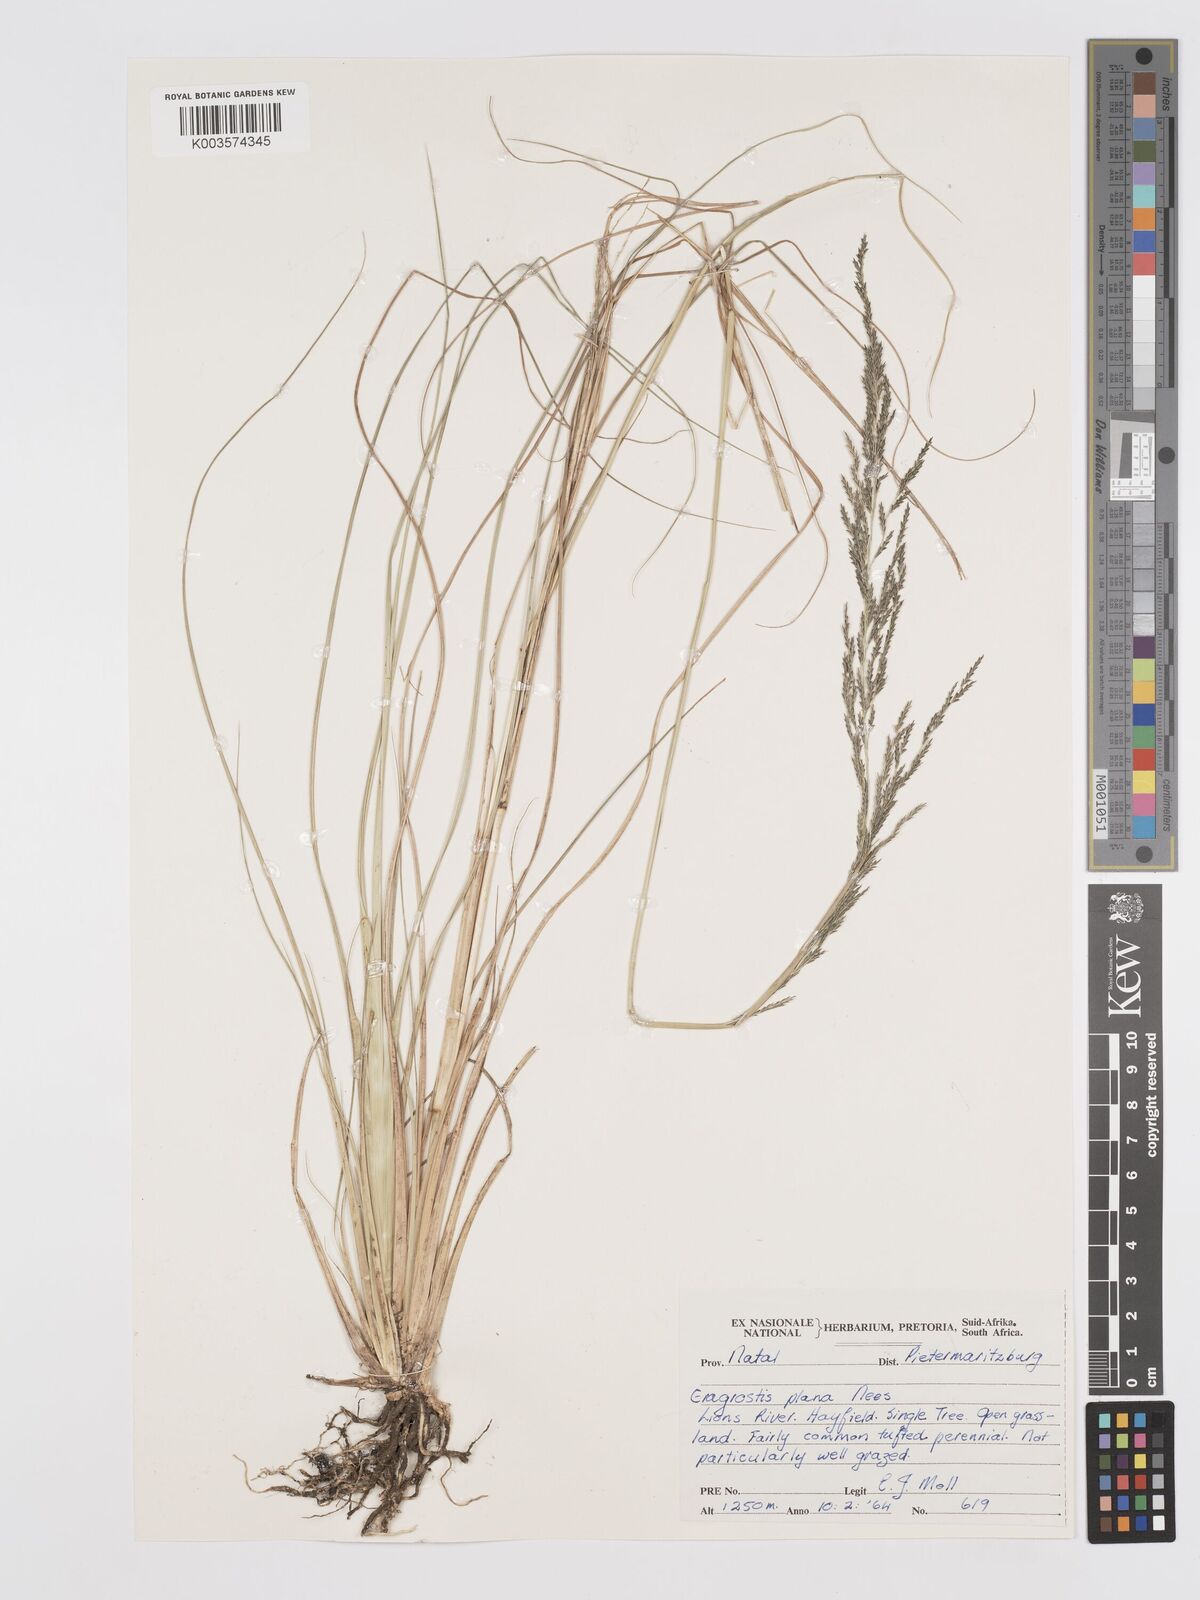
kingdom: Plantae
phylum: Tracheophyta
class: Liliopsida
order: Poales
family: Poaceae
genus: Eragrostis
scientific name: Eragrostis plana
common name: South african lovegrass
